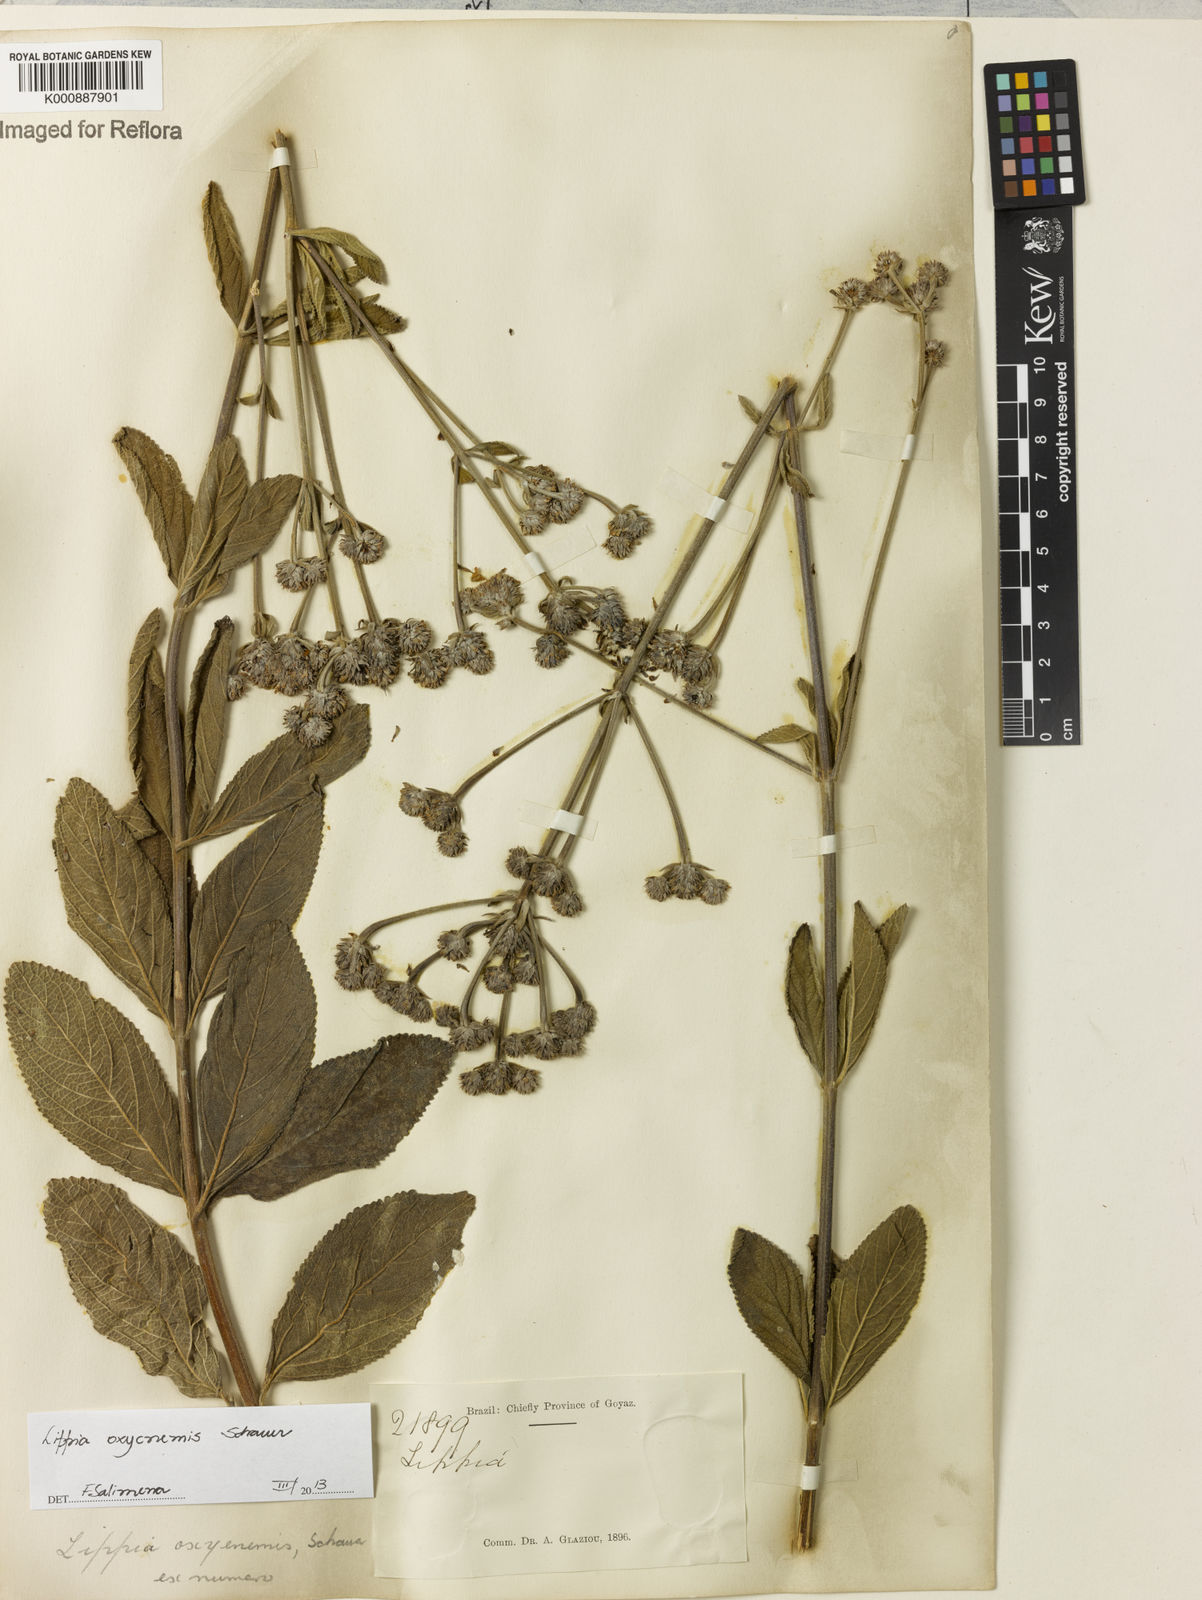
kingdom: Plantae
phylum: Tracheophyta
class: Magnoliopsida
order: Lamiales
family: Verbenaceae
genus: Lippia
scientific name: Lippia oxycnemis
